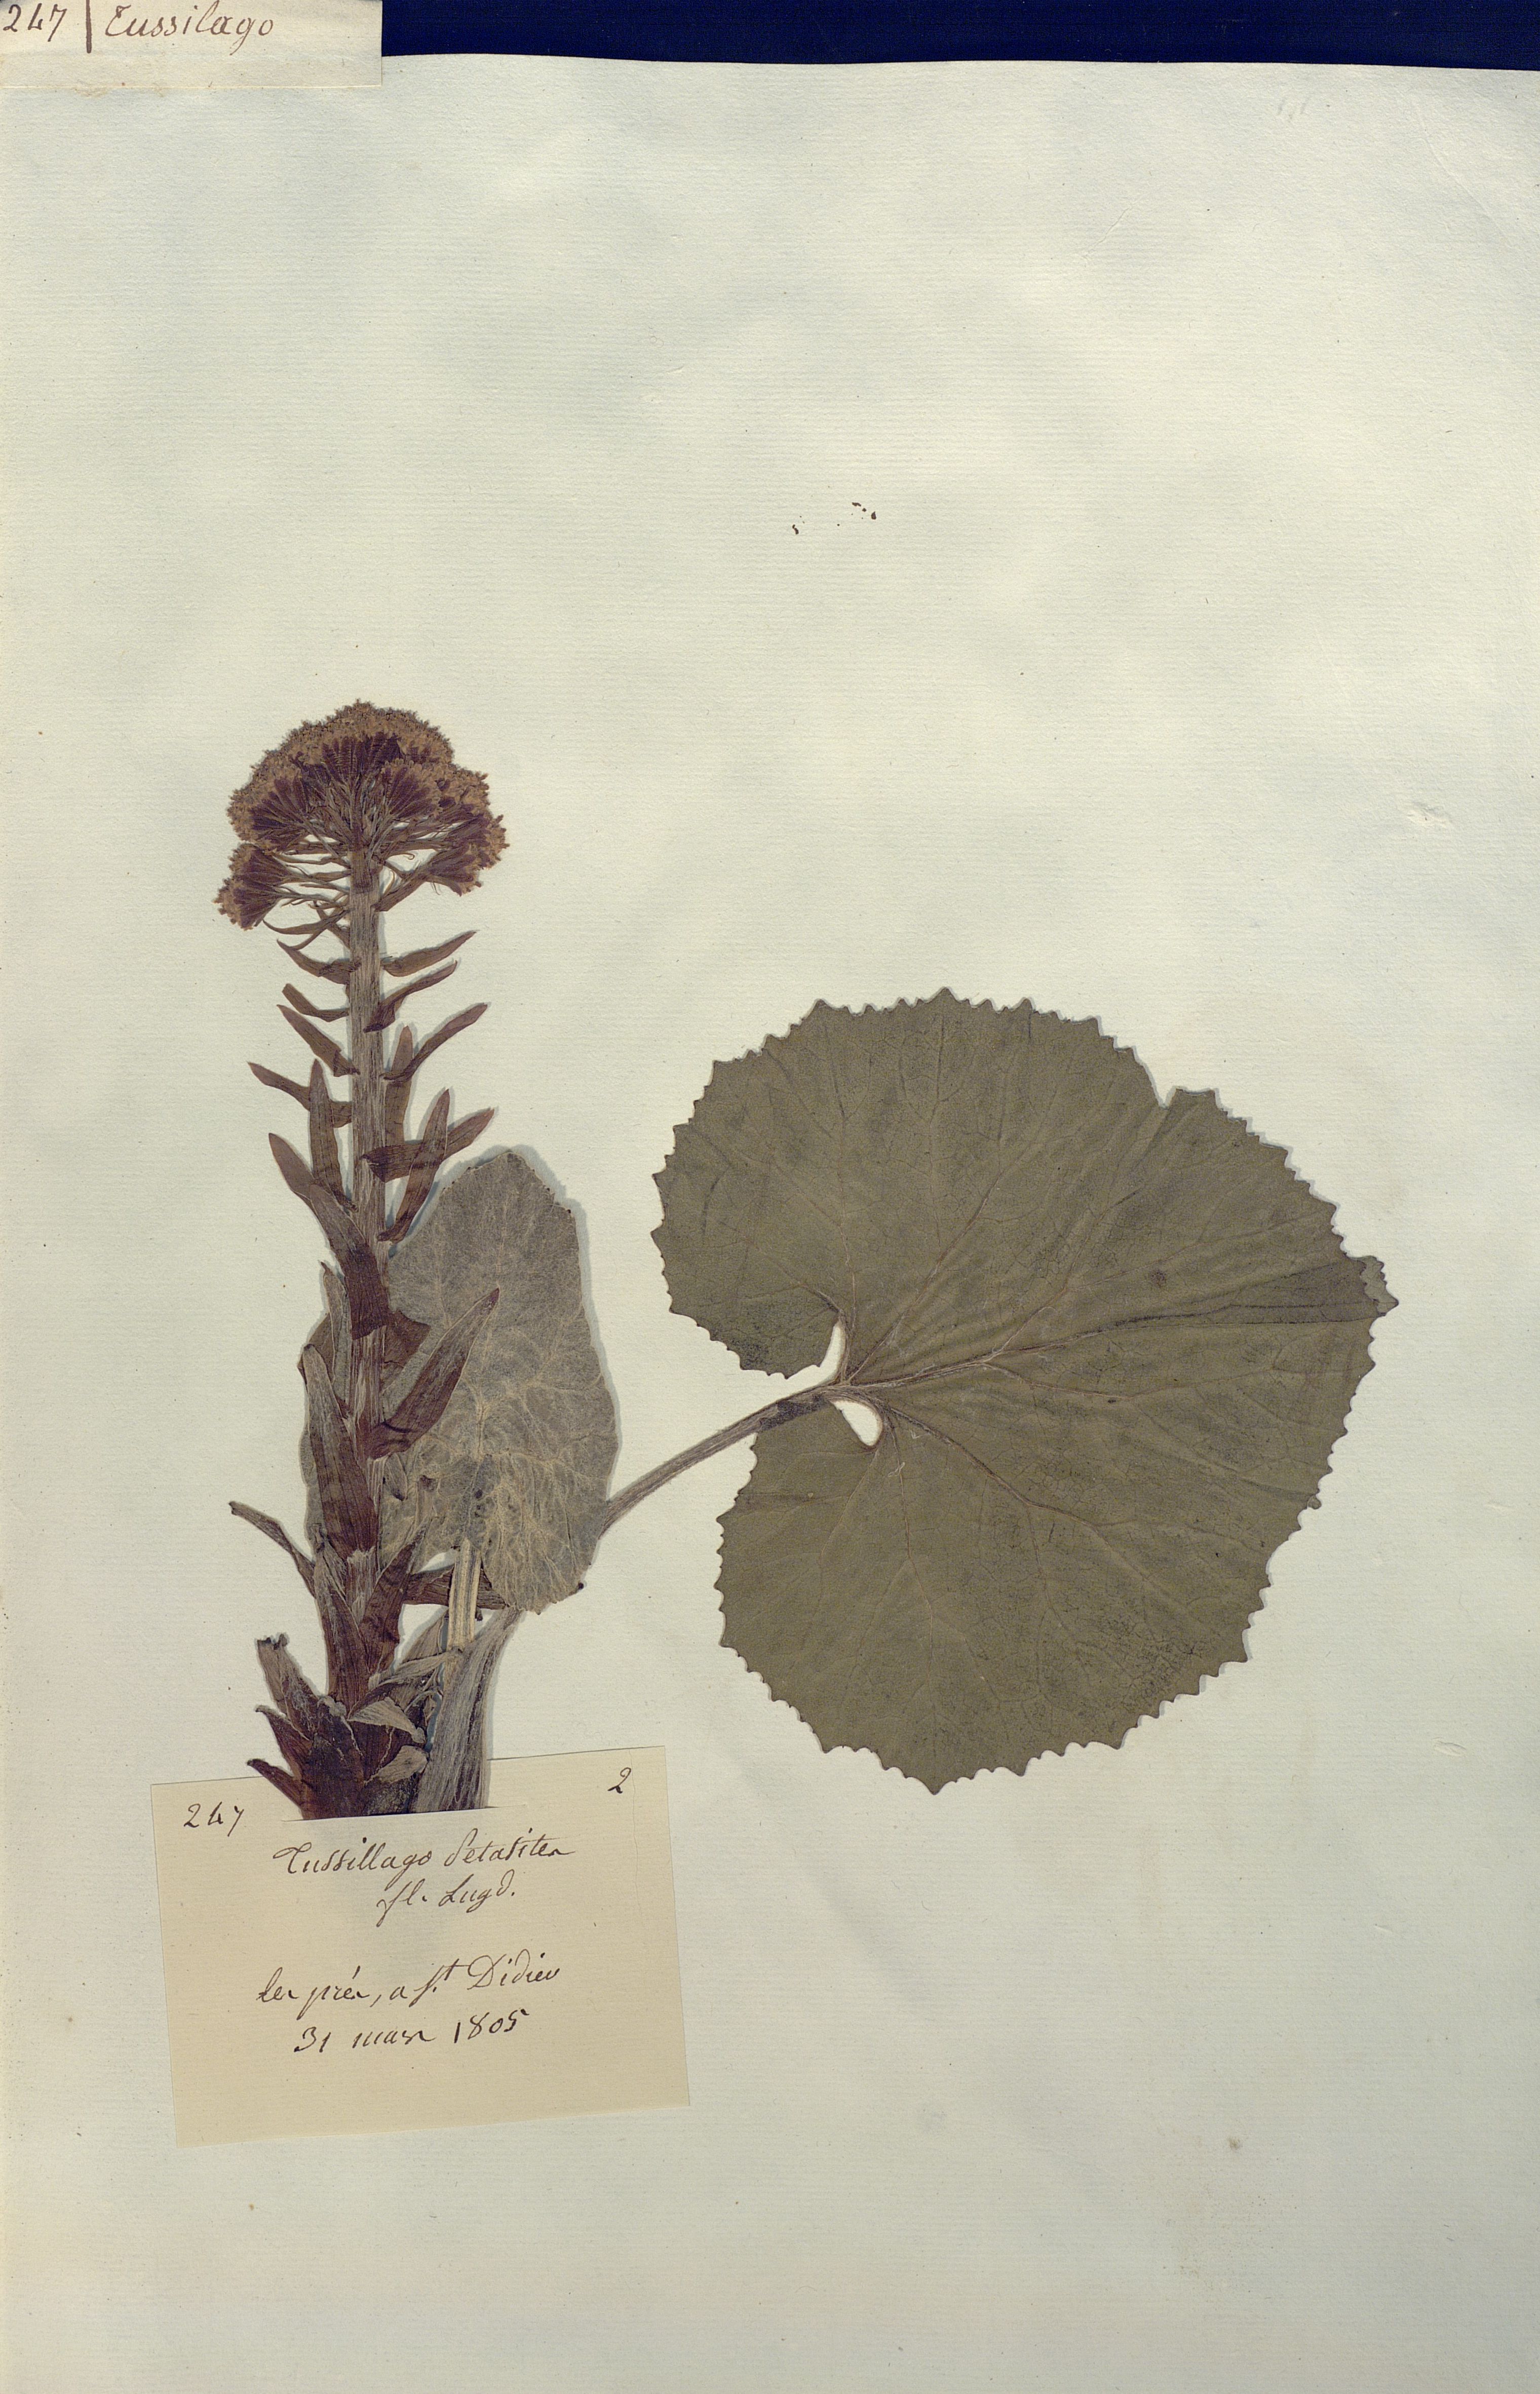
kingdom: Plantae
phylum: Tracheophyta
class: Magnoliopsida
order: Asterales
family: Asteraceae
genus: Petasites
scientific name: Petasites
